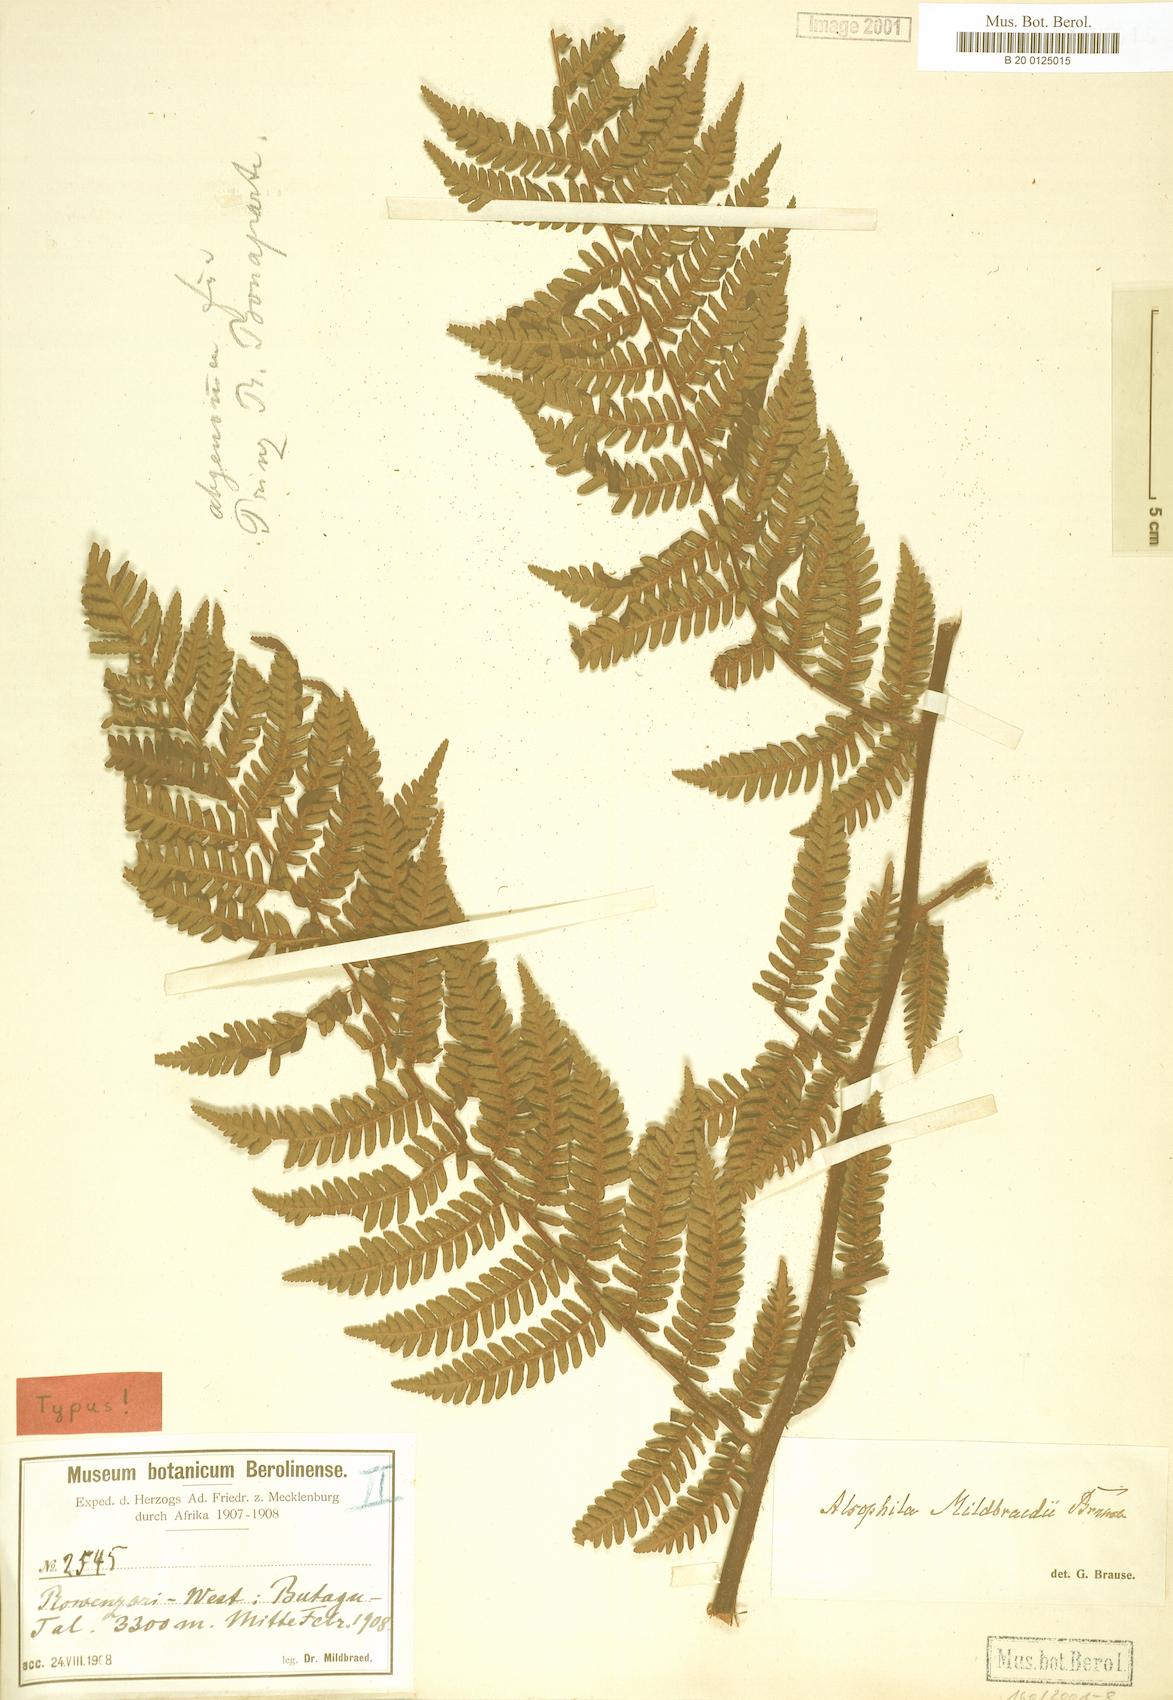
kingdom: Plantae
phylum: Tracheophyta
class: Polypodiopsida
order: Cyatheales
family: Cyatheaceae
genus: Gymnosphaera
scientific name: Gymnosphaera mildbraedii
